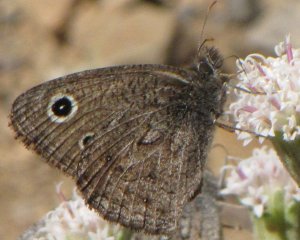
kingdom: Animalia
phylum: Arthropoda
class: Insecta
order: Lepidoptera
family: Nymphalidae
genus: Cercyonis
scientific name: Cercyonis oetus
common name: Small Wood-Nymph
